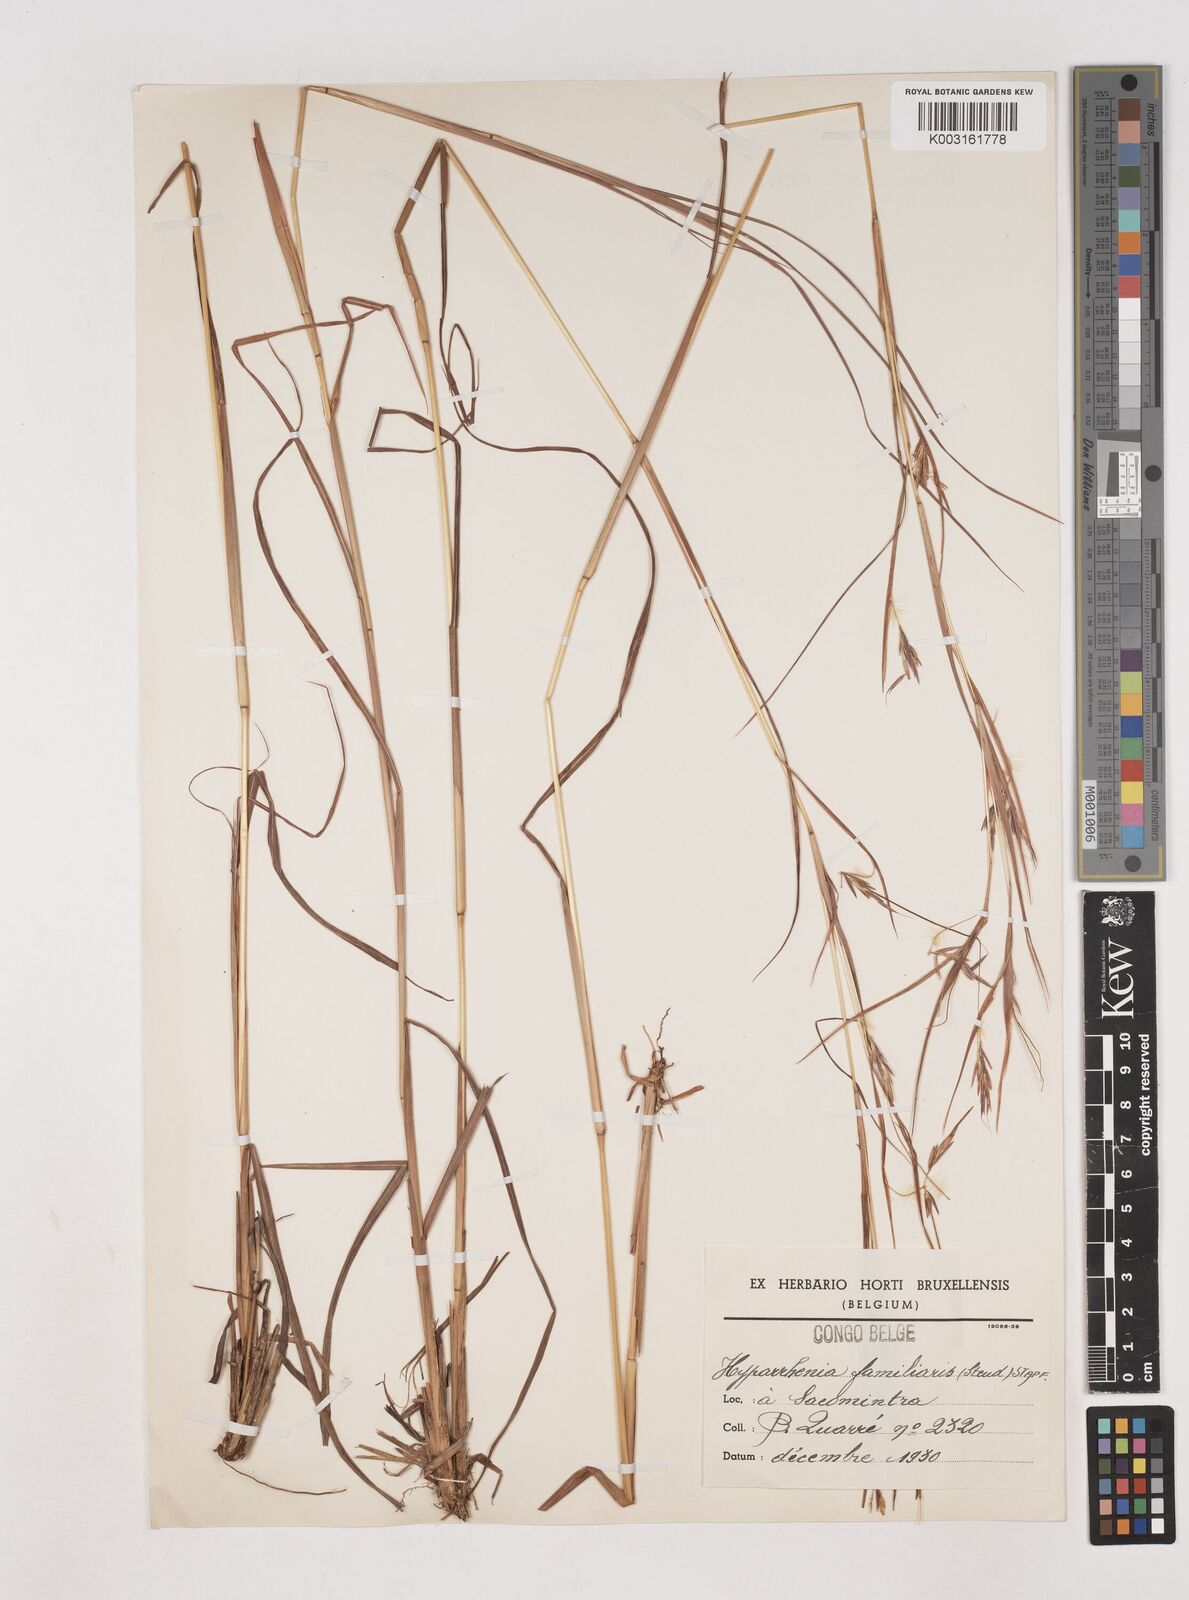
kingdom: Plantae
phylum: Tracheophyta
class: Liliopsida
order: Poales
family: Poaceae
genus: Hyparrhenia
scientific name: Hyparrhenia familiaris
